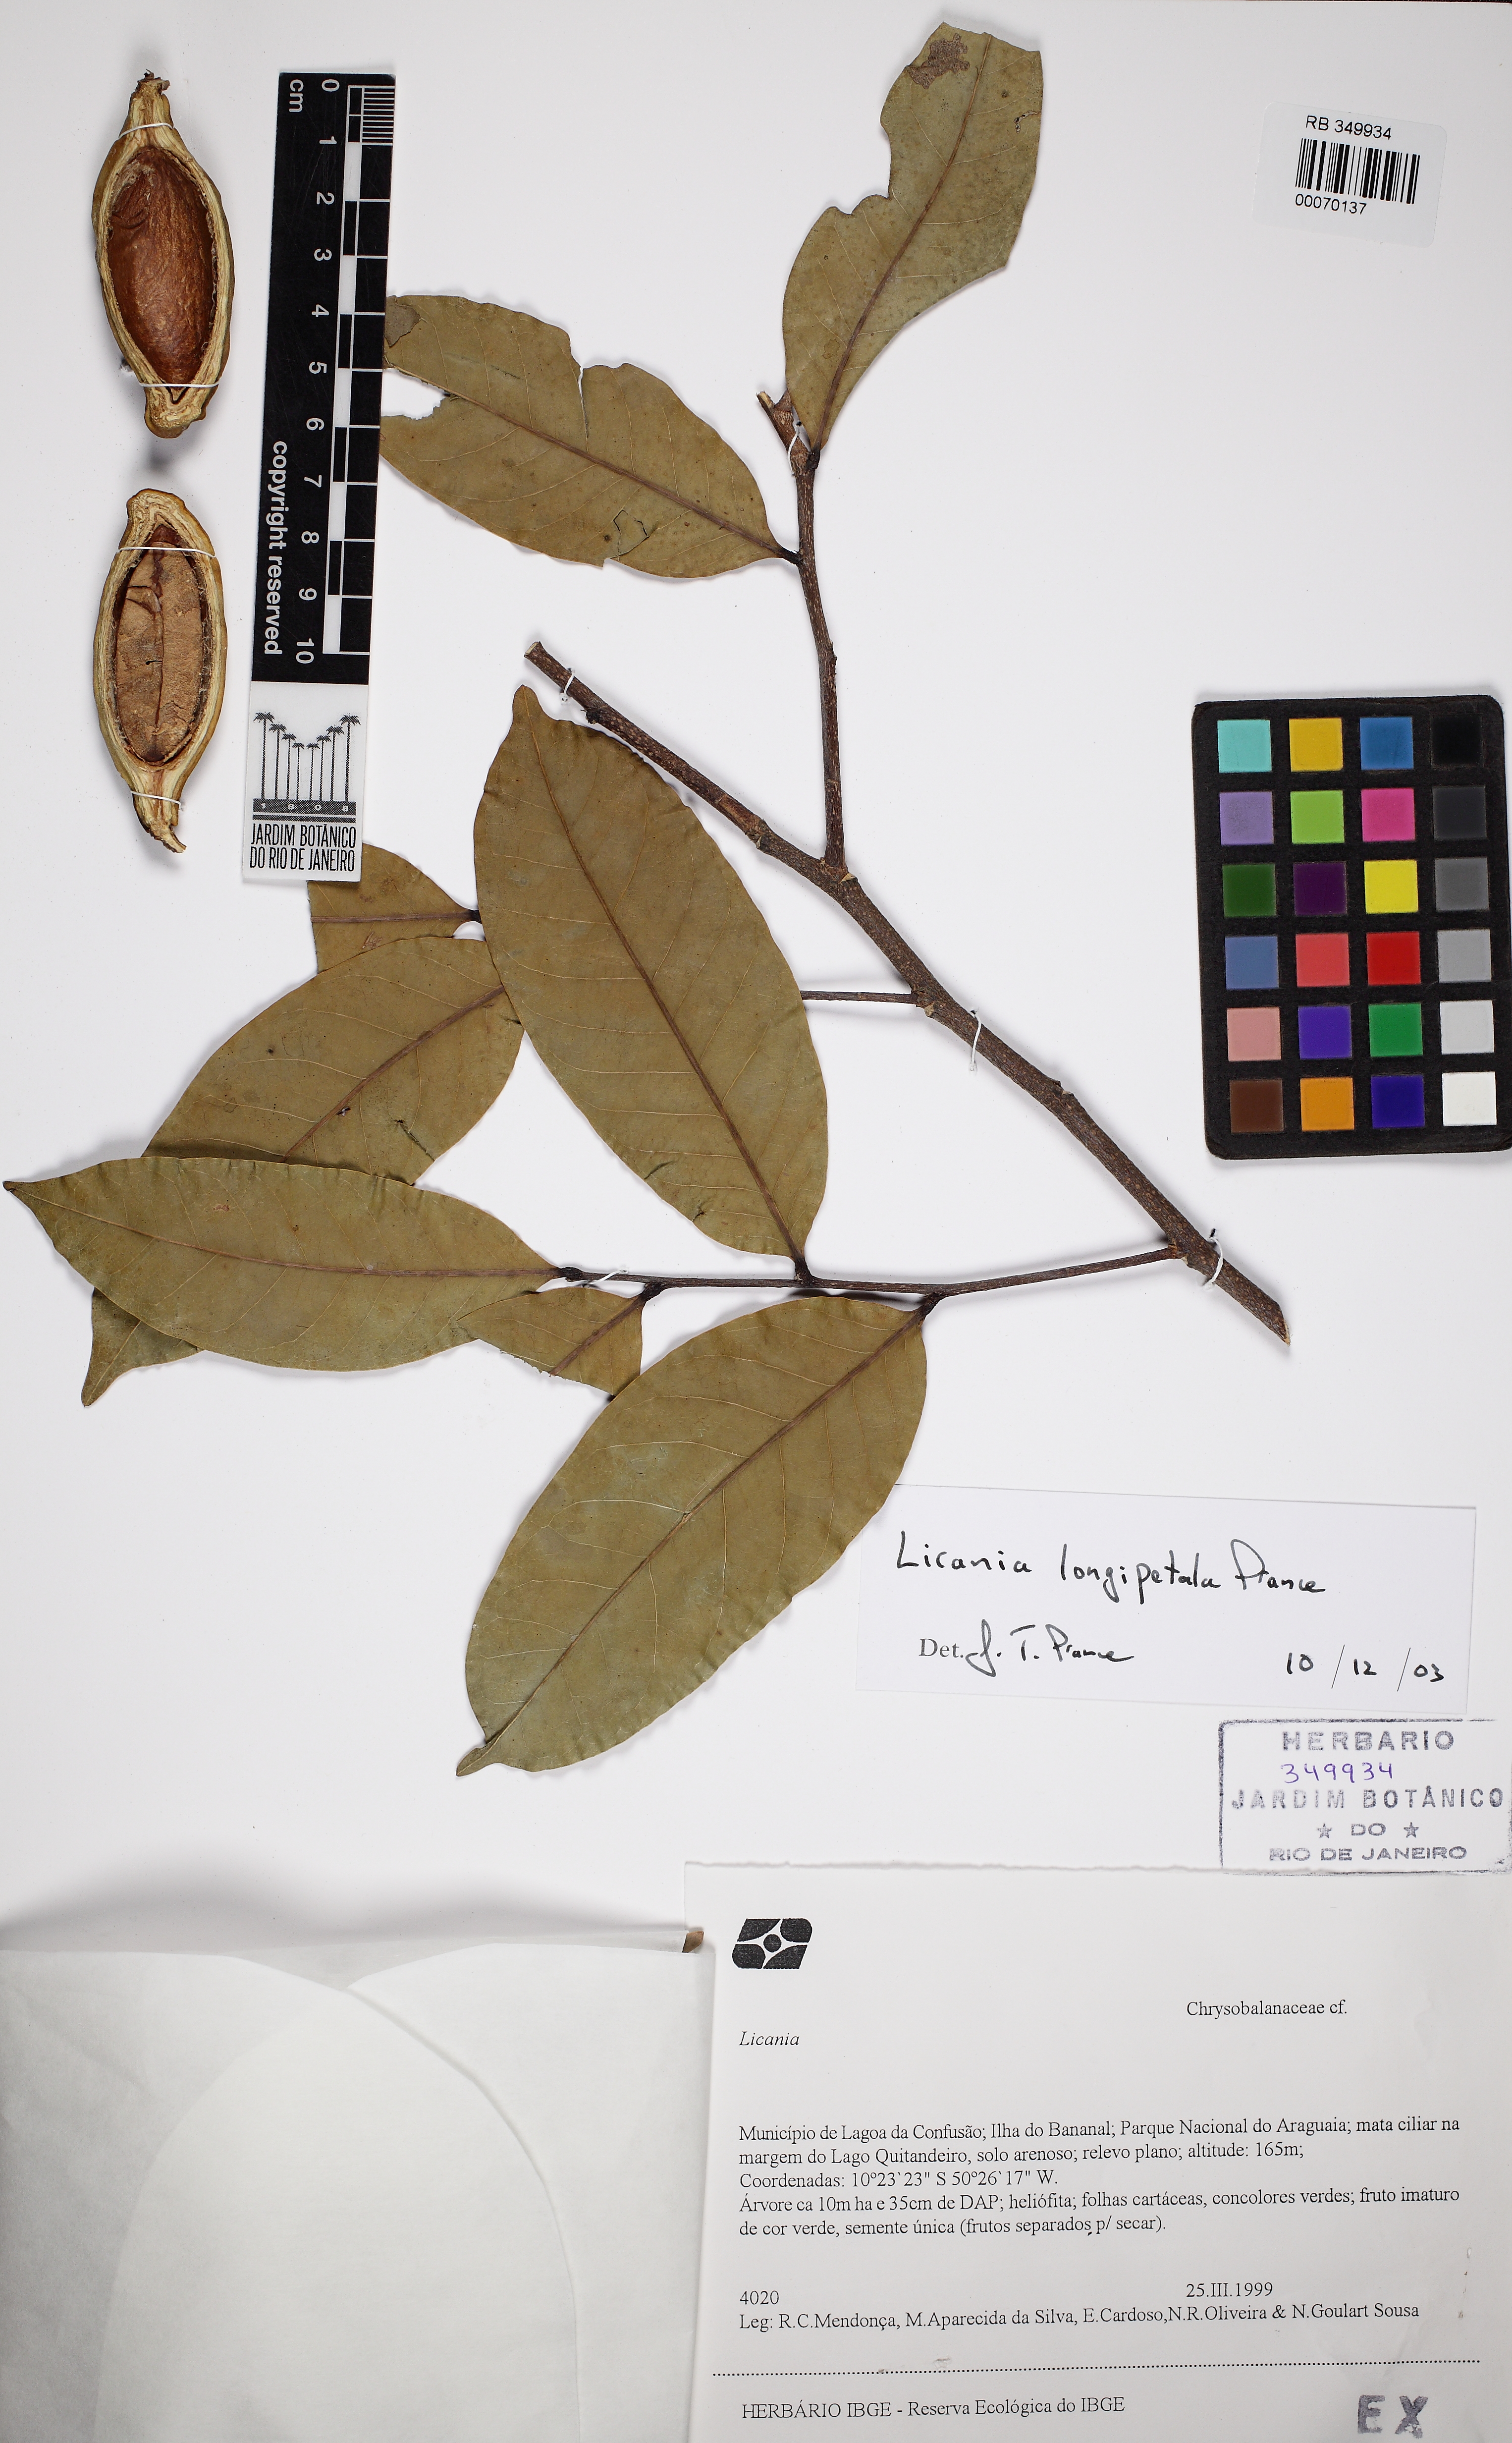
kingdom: Plantae
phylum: Tracheophyta
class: Magnoliopsida
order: Malpighiales
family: Chrysobalanaceae
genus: Leptobalanus
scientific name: Leptobalanus longistylus
